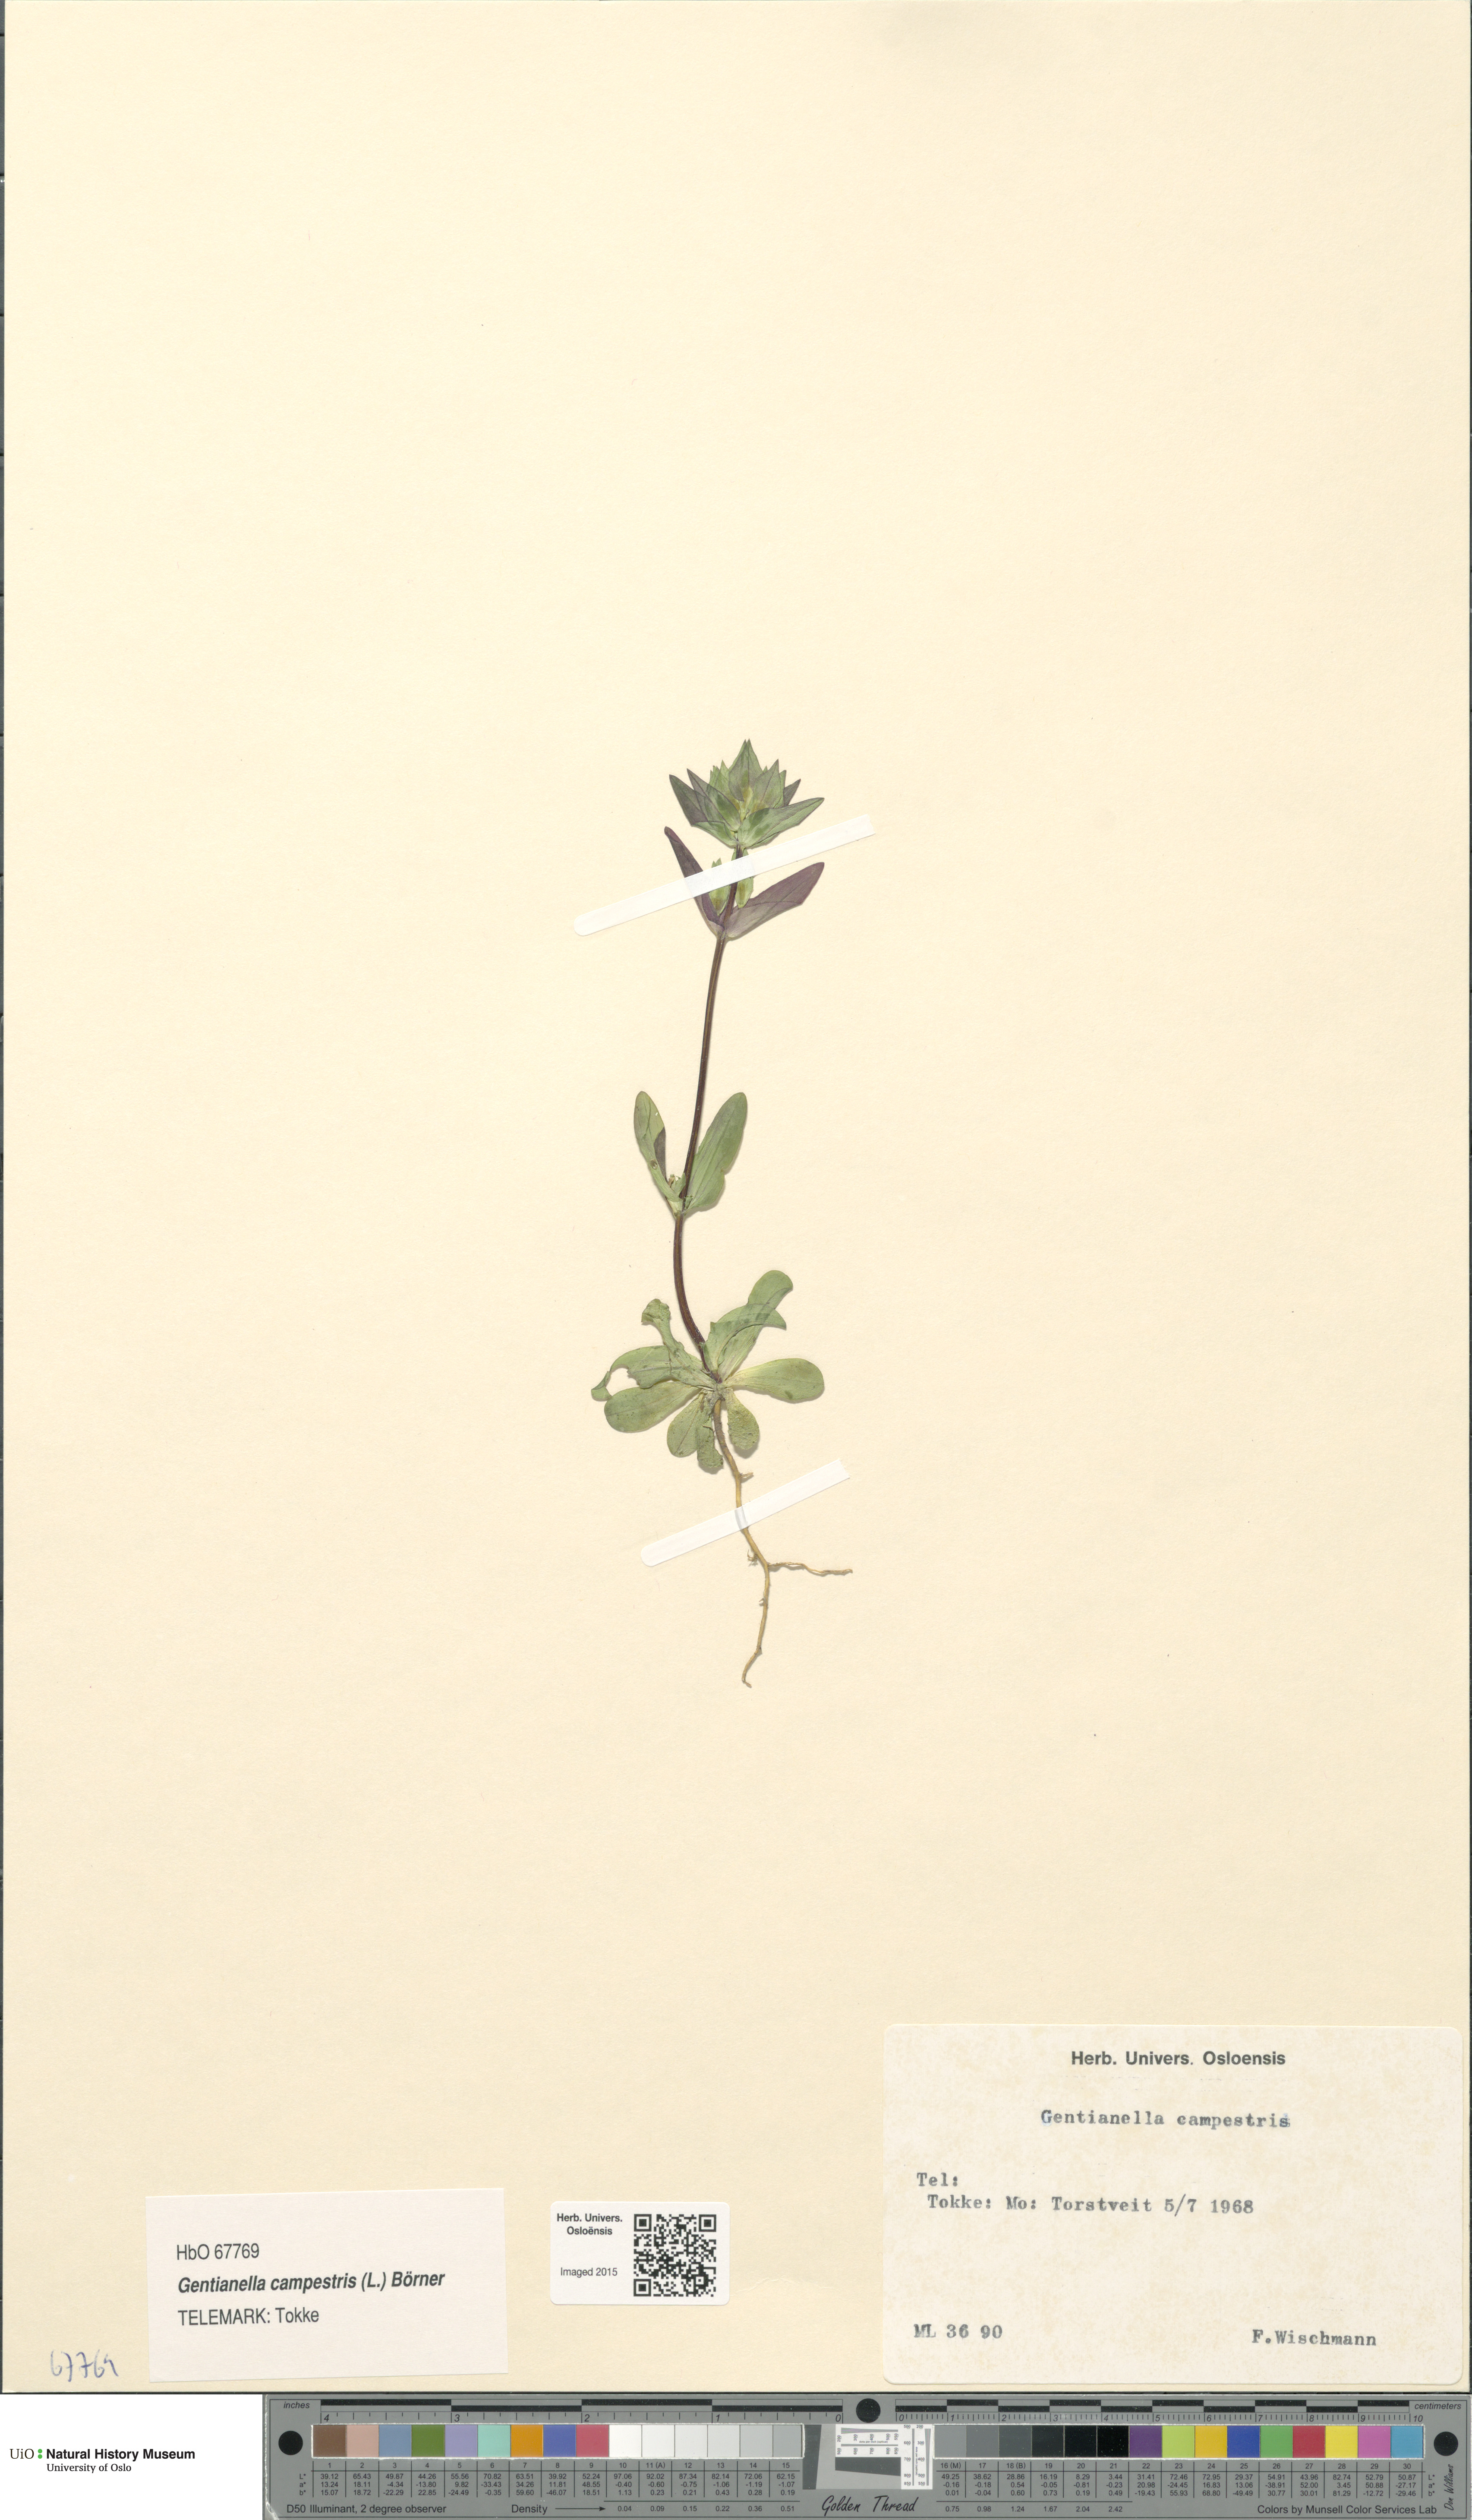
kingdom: Plantae
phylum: Tracheophyta
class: Magnoliopsida
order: Gentianales
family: Gentianaceae
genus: Gentianella
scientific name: Gentianella campestris
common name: Field gentian
